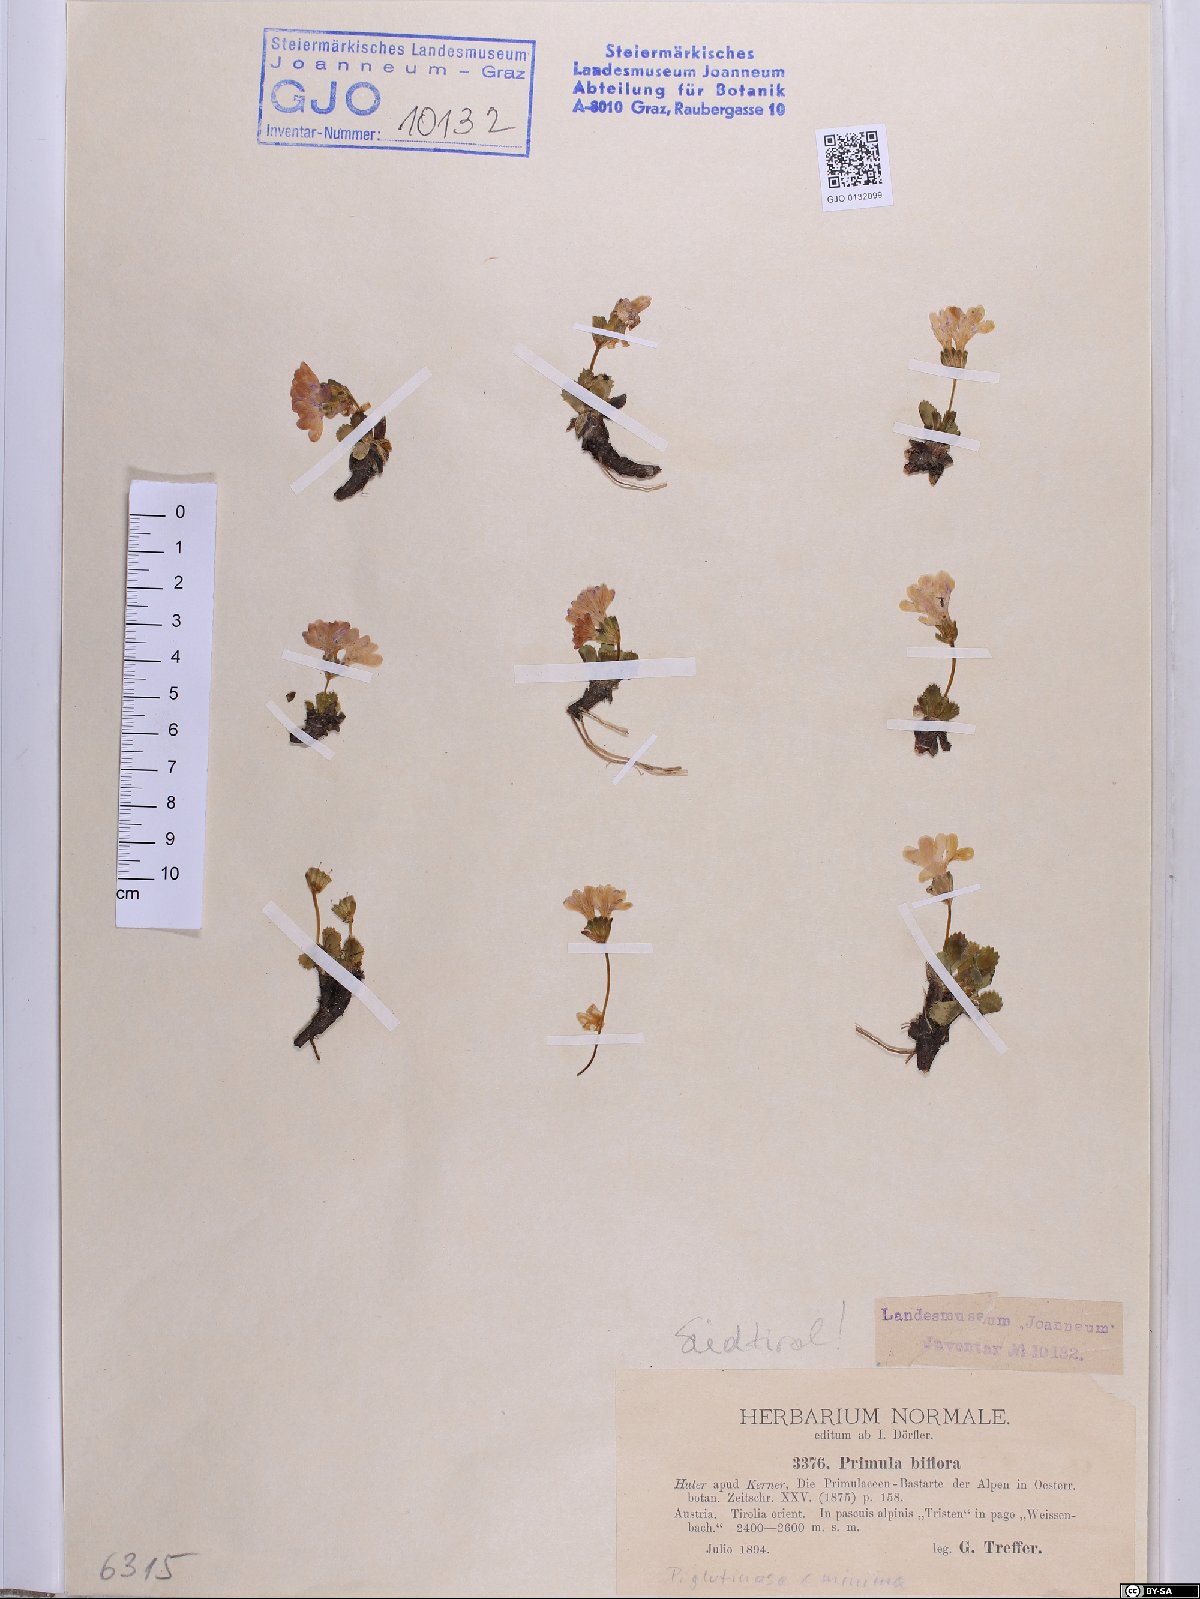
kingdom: Plantae
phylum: Tracheophyta
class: Magnoliopsida
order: Ericales
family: Primulaceae
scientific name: Primulaceae
